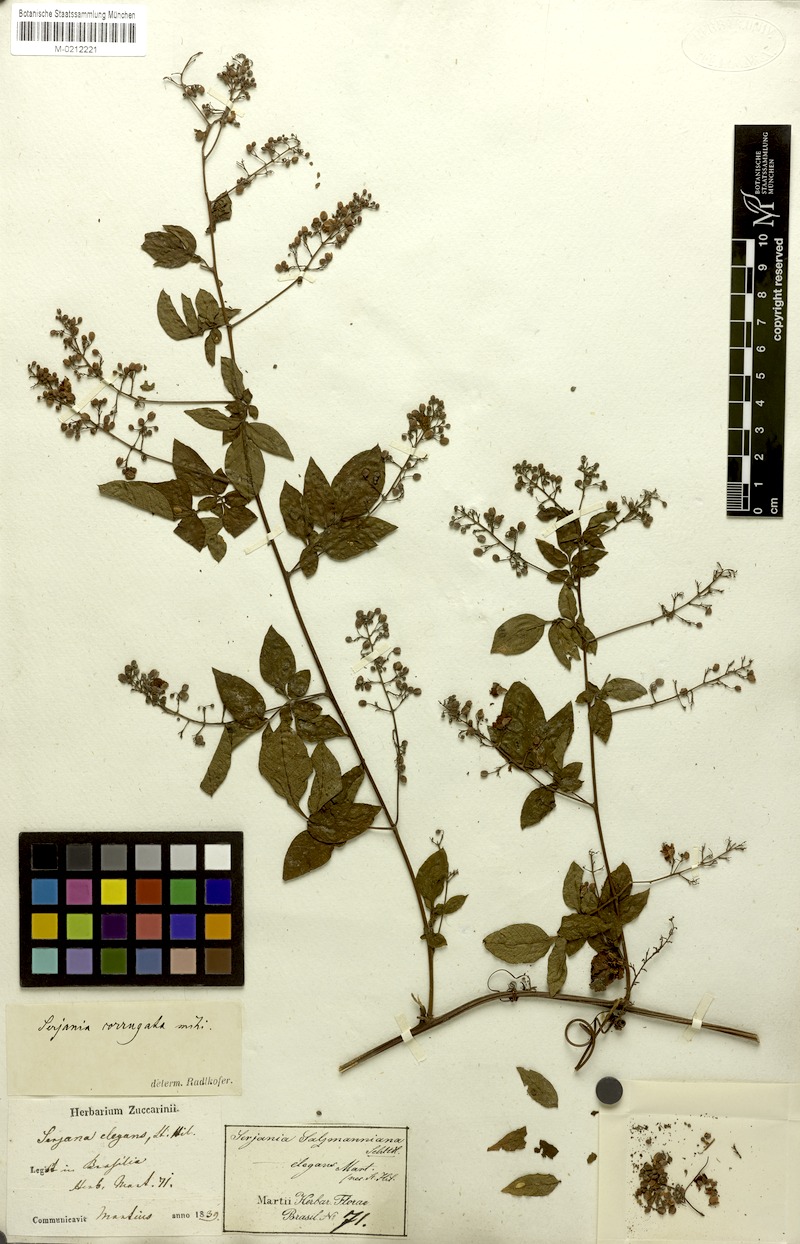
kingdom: Plantae
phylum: Tracheophyta
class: Magnoliopsida
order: Sapindales
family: Sapindaceae
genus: Serjania
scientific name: Serjania corrugata
